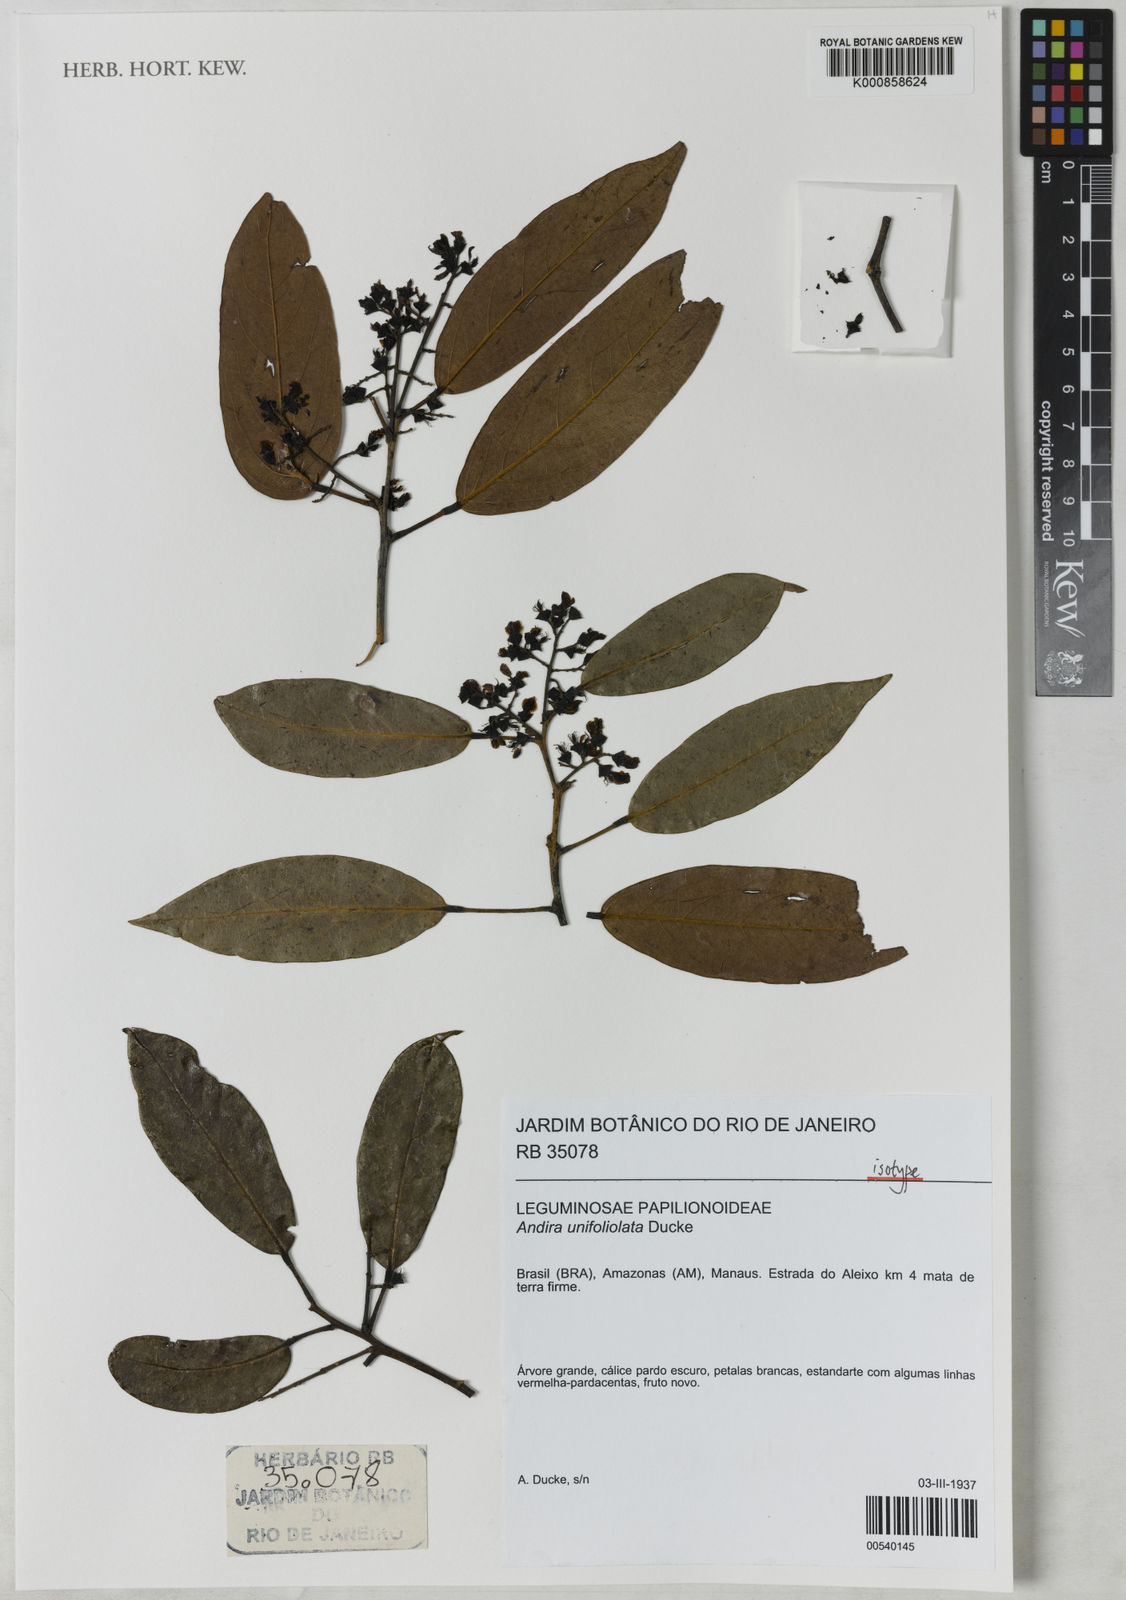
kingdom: Plantae
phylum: Tracheophyta
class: Magnoliopsida
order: Fabales
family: Fabaceae
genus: Andira
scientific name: Andira unifoliolata
